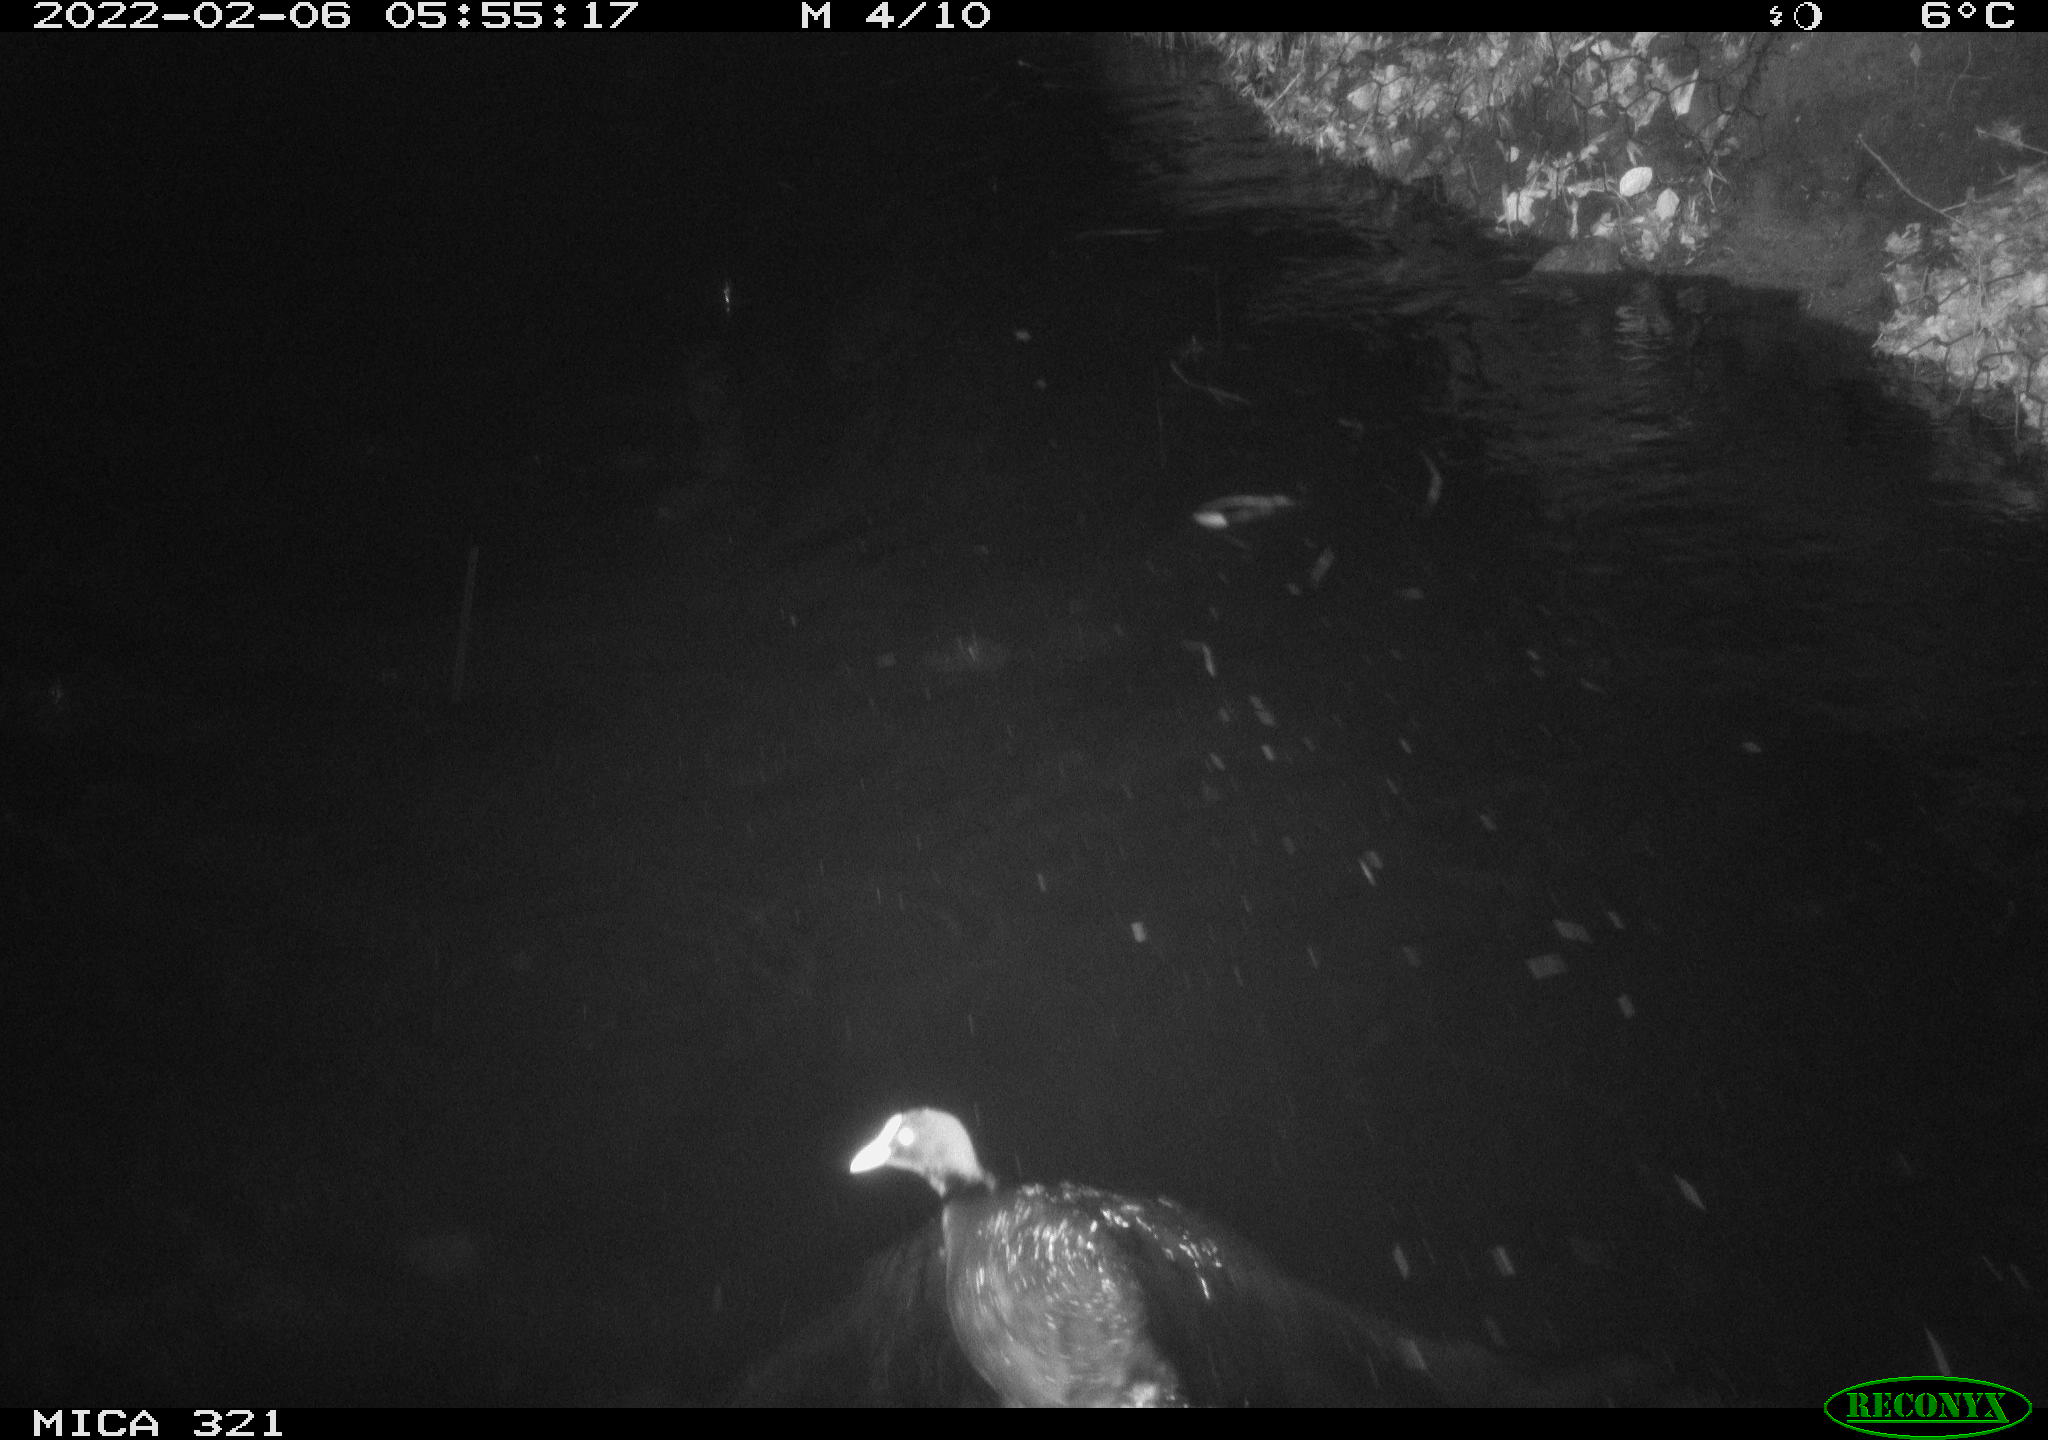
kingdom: Animalia
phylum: Chordata
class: Aves
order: Gruiformes
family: Rallidae
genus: Gallinula
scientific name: Gallinula chloropus
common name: Common moorhen
